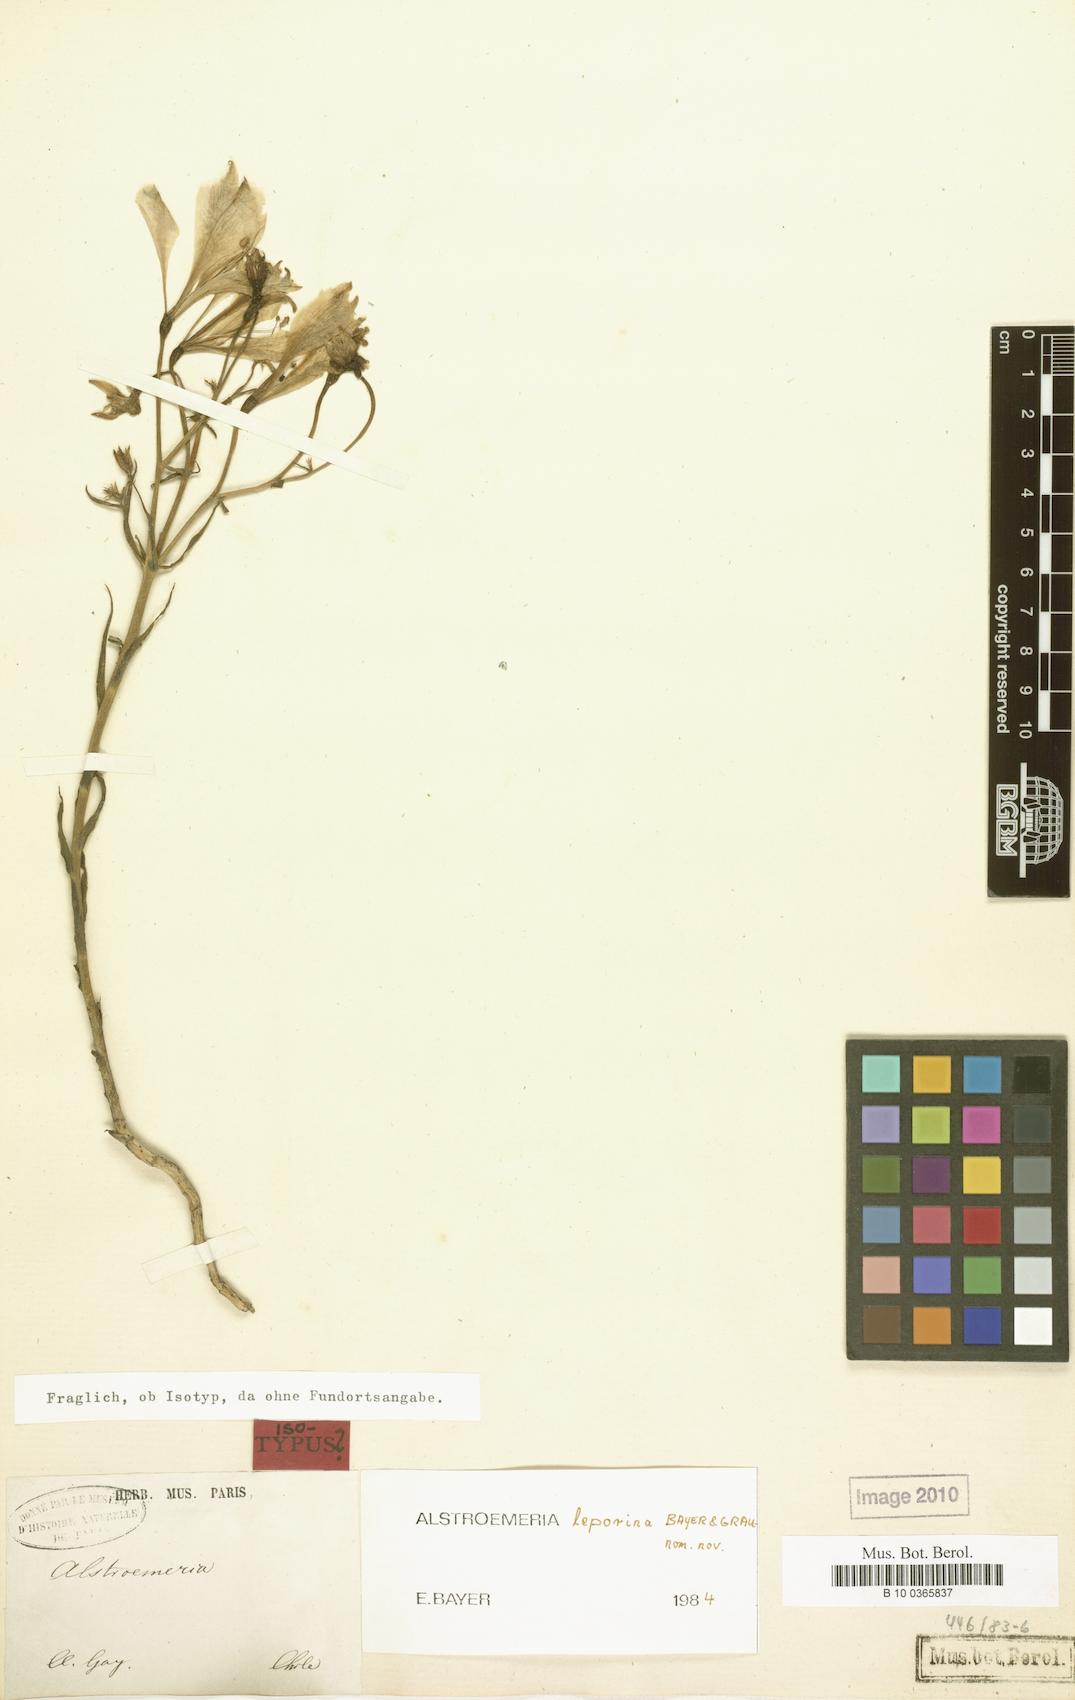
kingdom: Plantae
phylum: Tracheophyta
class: Liliopsida
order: Liliales
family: Alstroemeriaceae
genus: Alstroemeria
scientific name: Alstroemeria leporina
